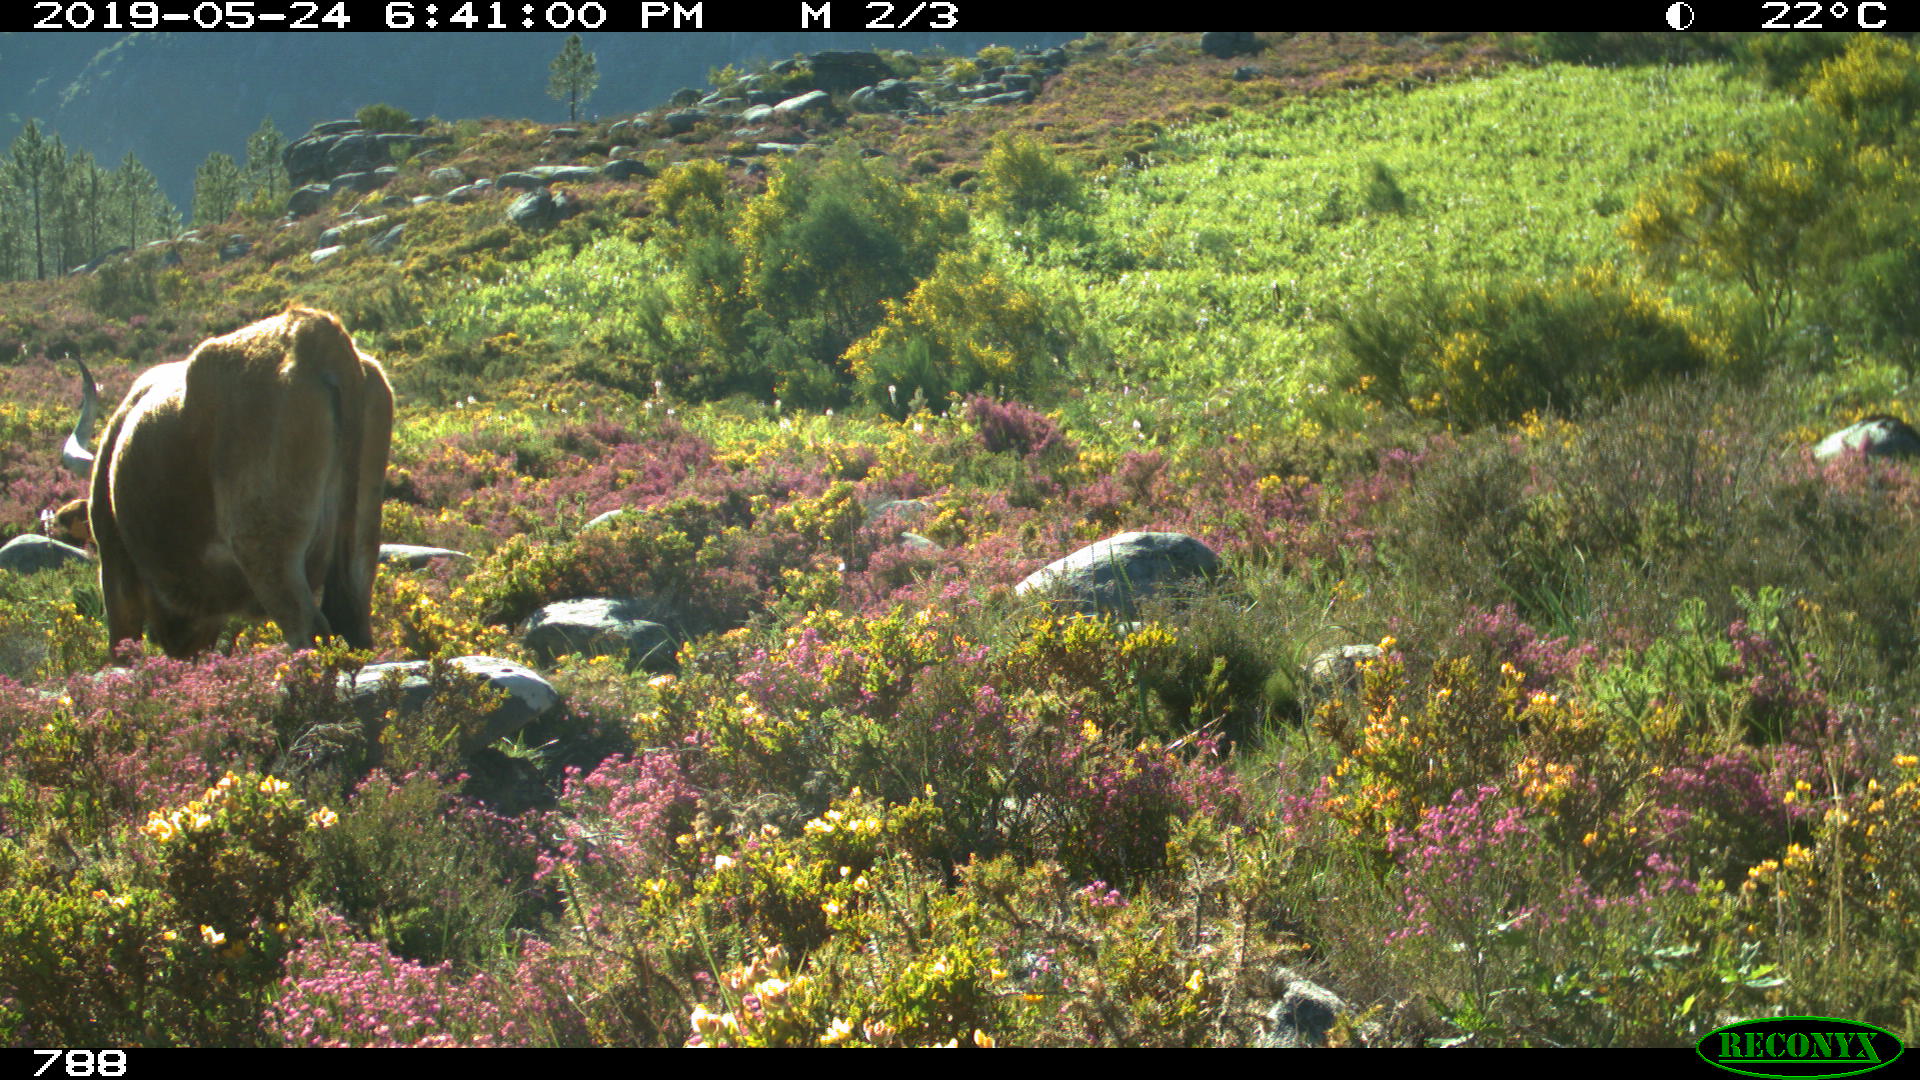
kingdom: Animalia
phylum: Chordata
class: Mammalia
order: Artiodactyla
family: Bovidae
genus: Bos
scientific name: Bos taurus
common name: Domesticated cattle
